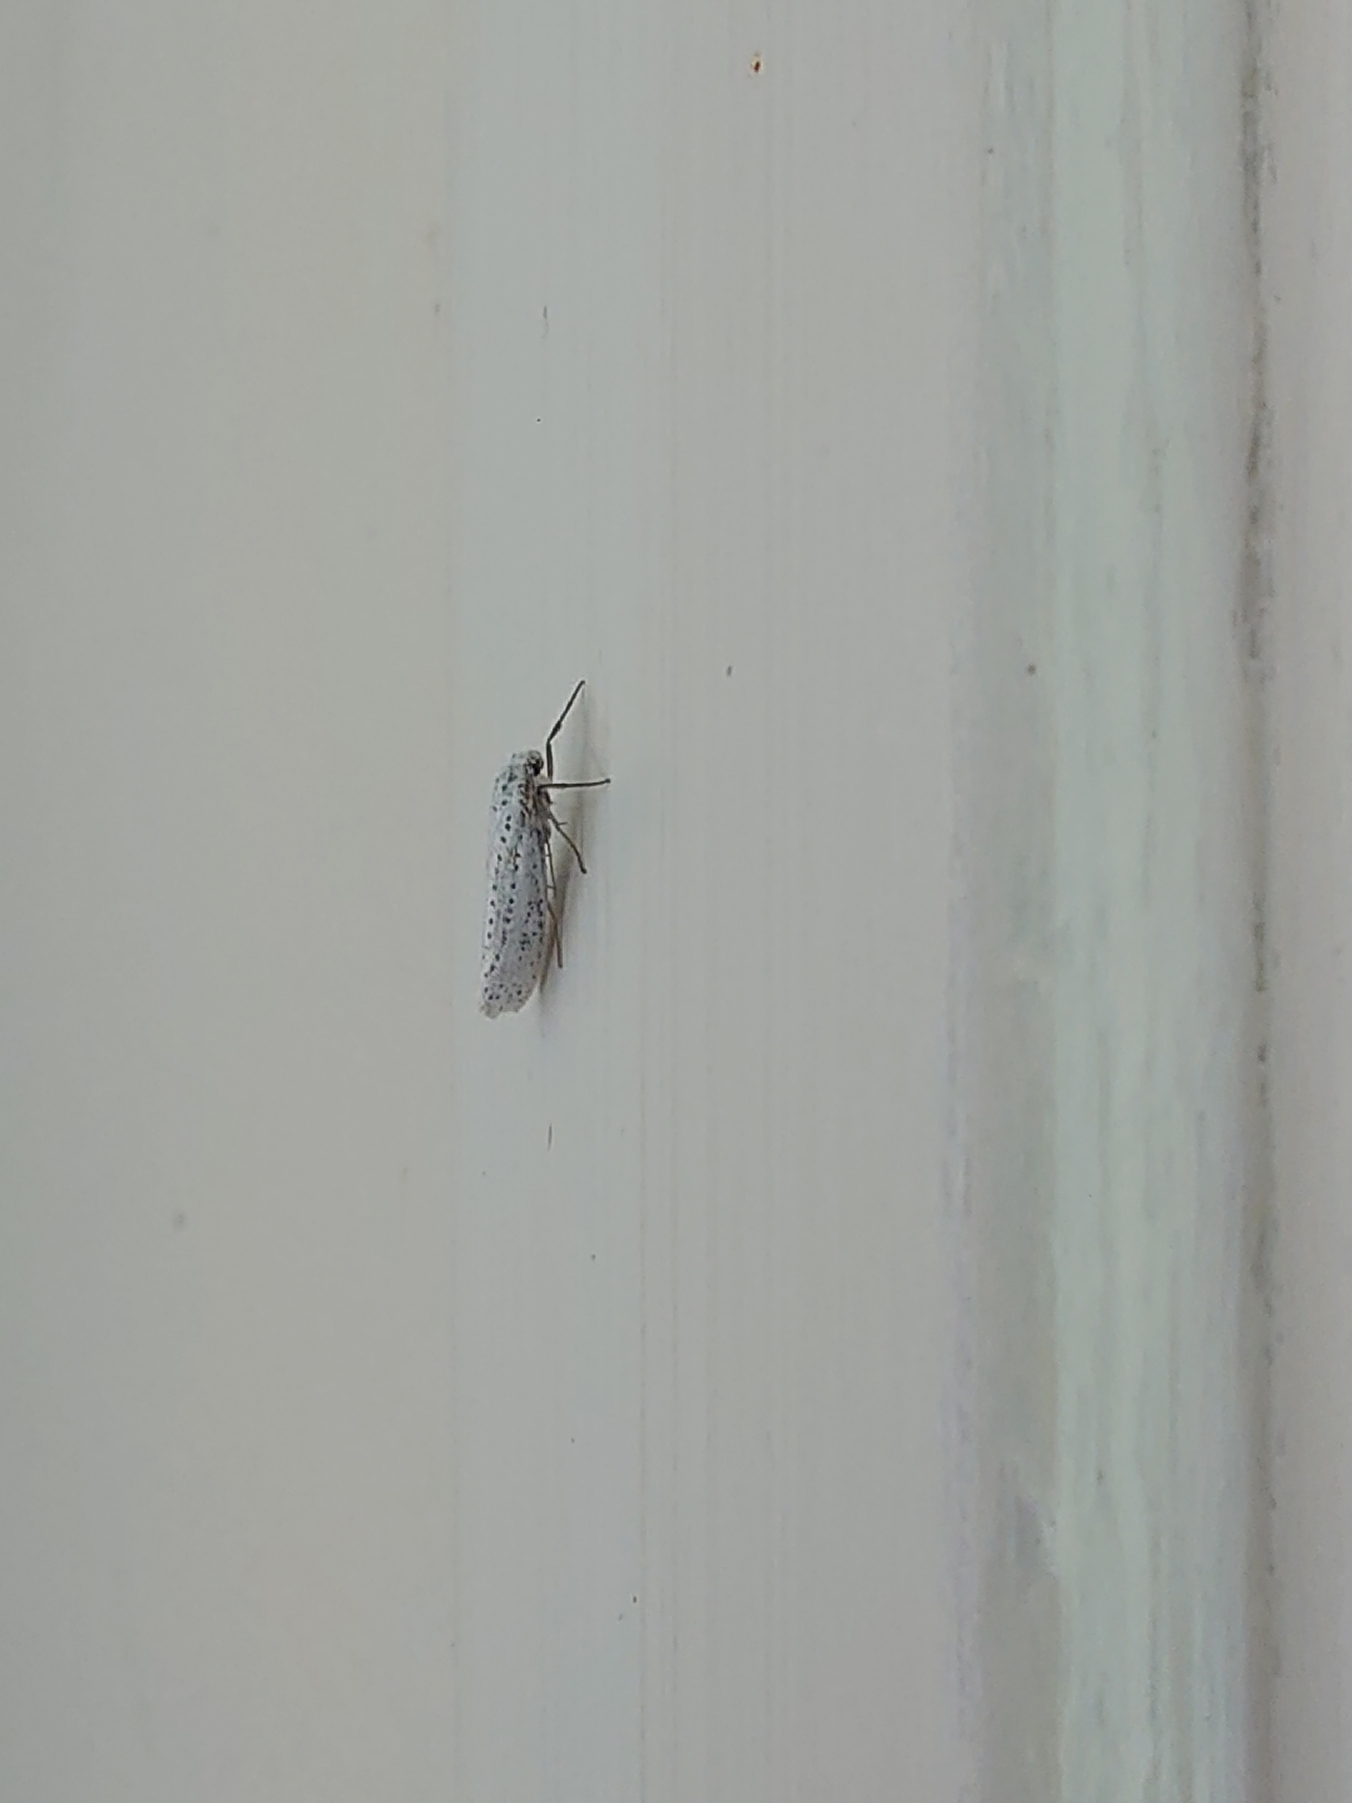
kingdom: Animalia
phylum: Arthropoda
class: Insecta
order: Lepidoptera
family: Yponomeutidae
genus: Yponomeuta
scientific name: Yponomeuta evonymella
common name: Hægspindemøl
